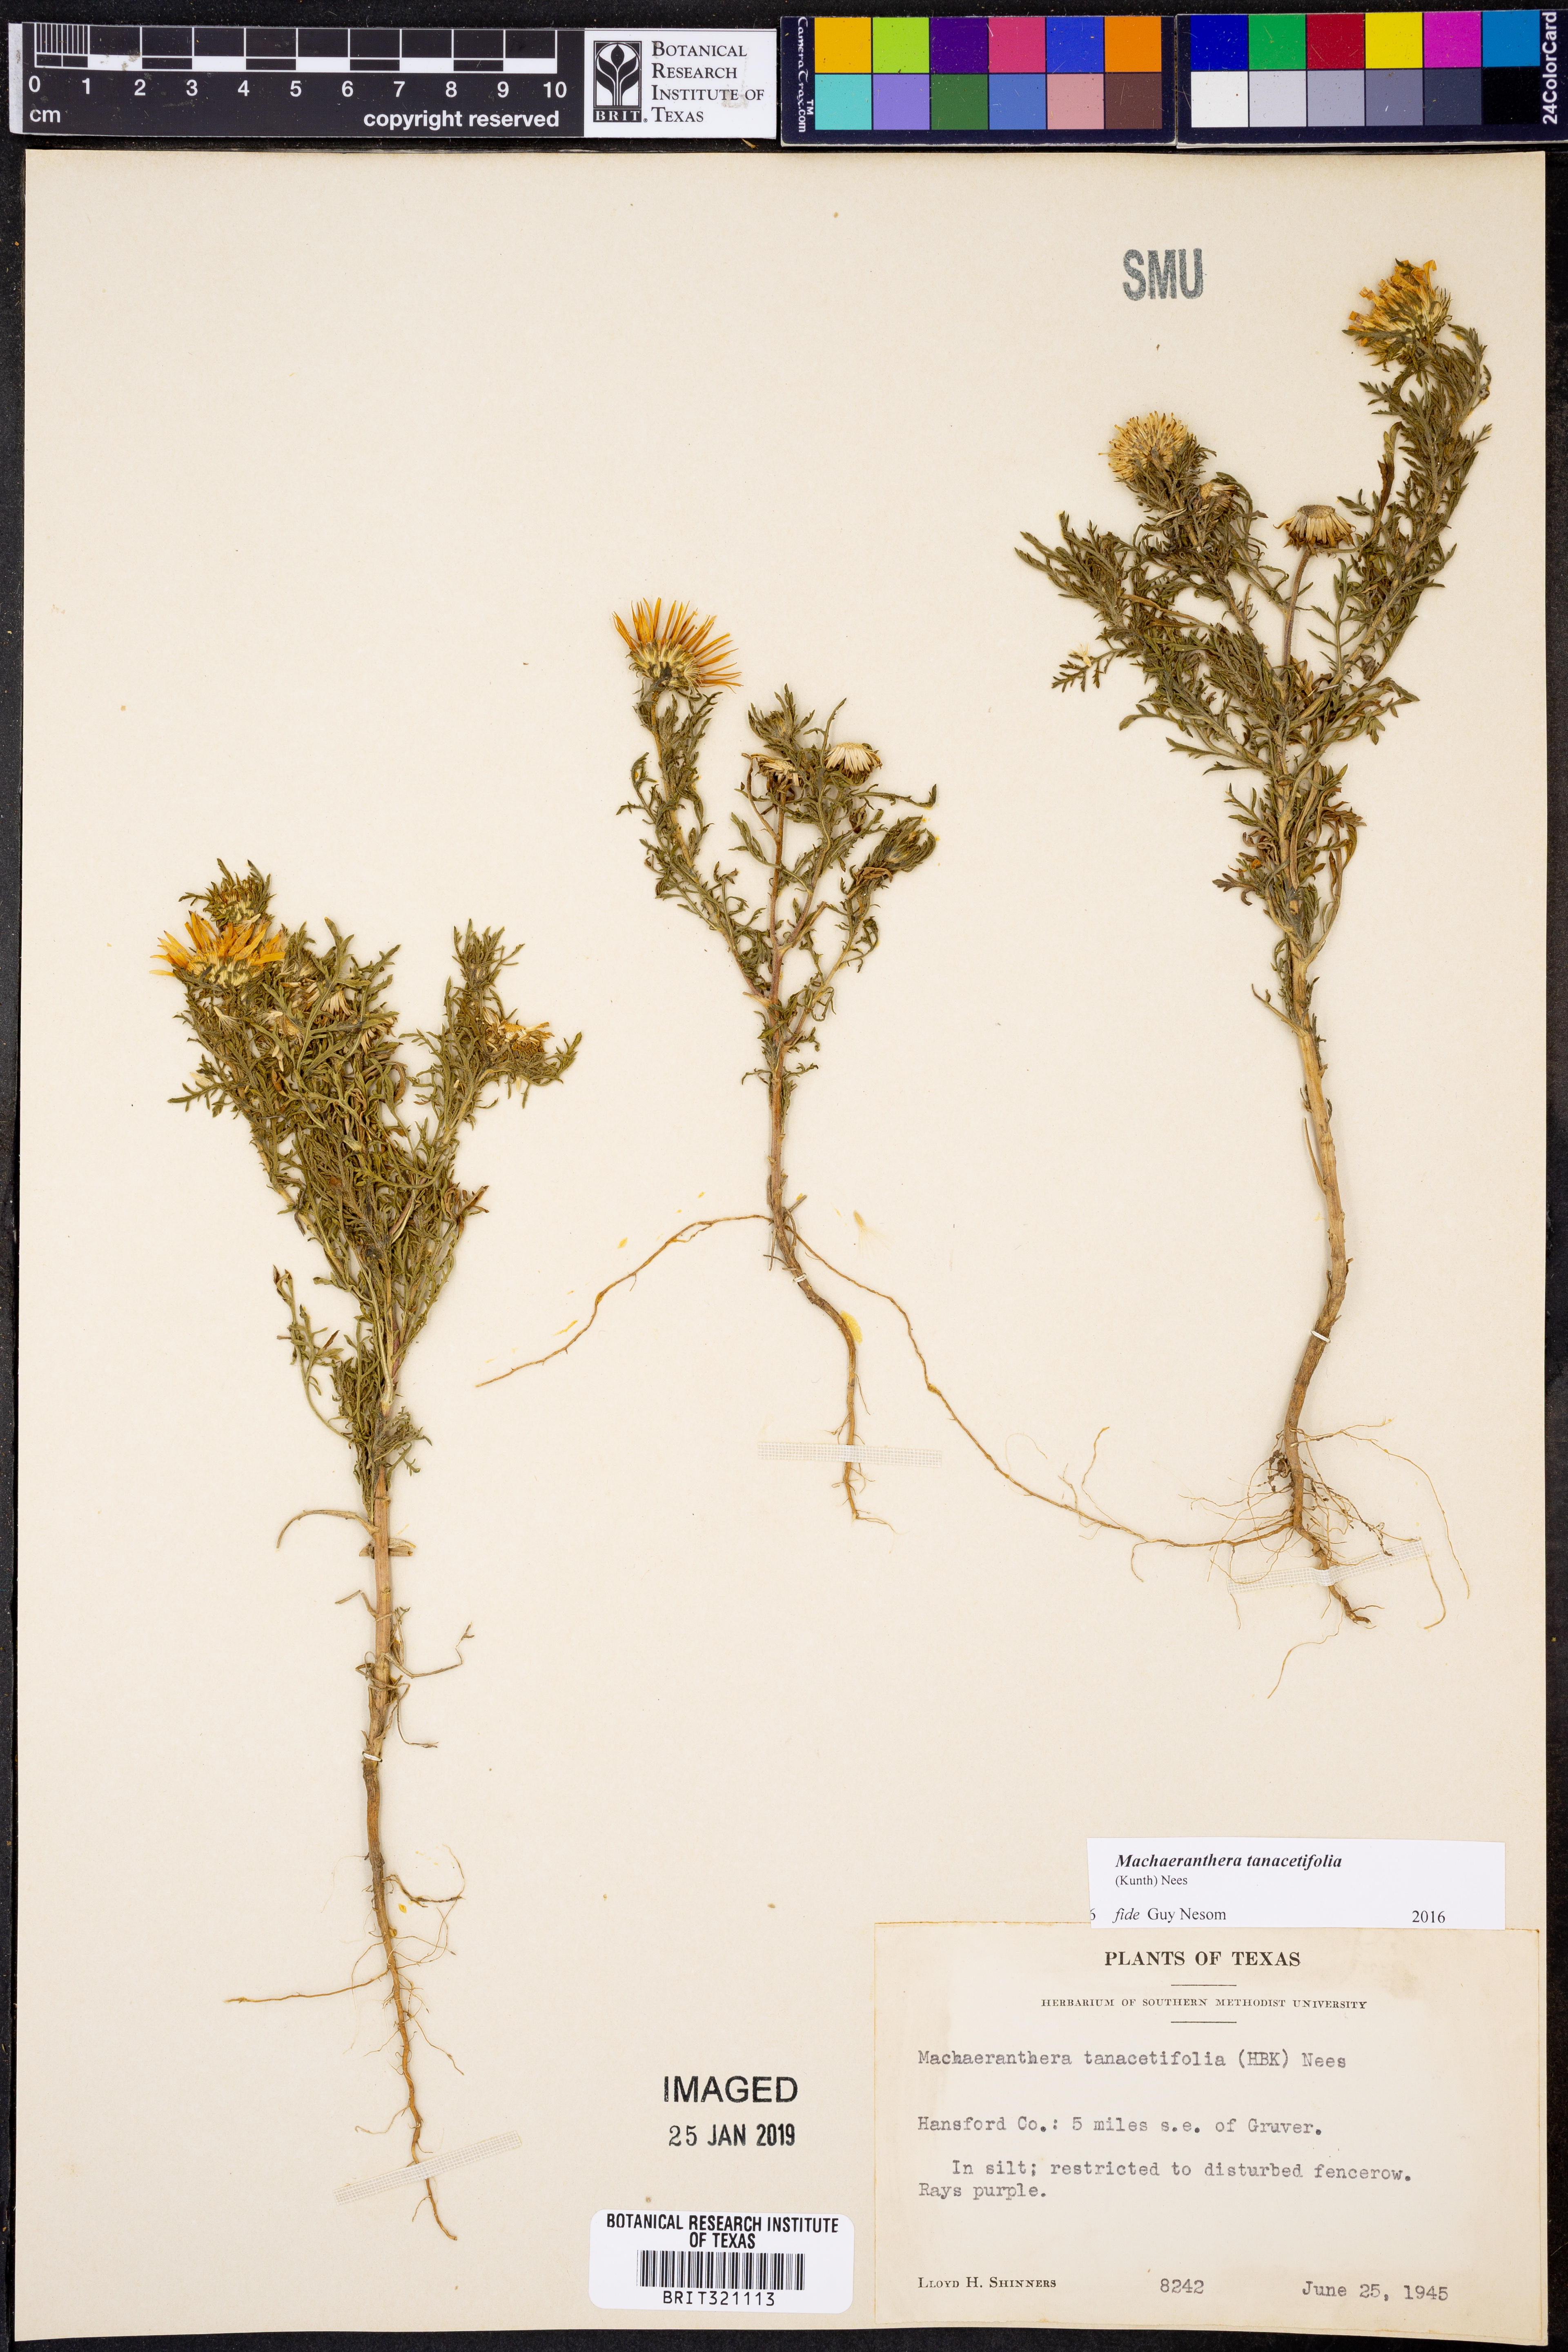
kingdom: Plantae
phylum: Tracheophyta
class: Magnoliopsida
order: Asterales
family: Asteraceae
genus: Machaeranthera
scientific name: Machaeranthera tanacetifolia
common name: Tansy-aster
